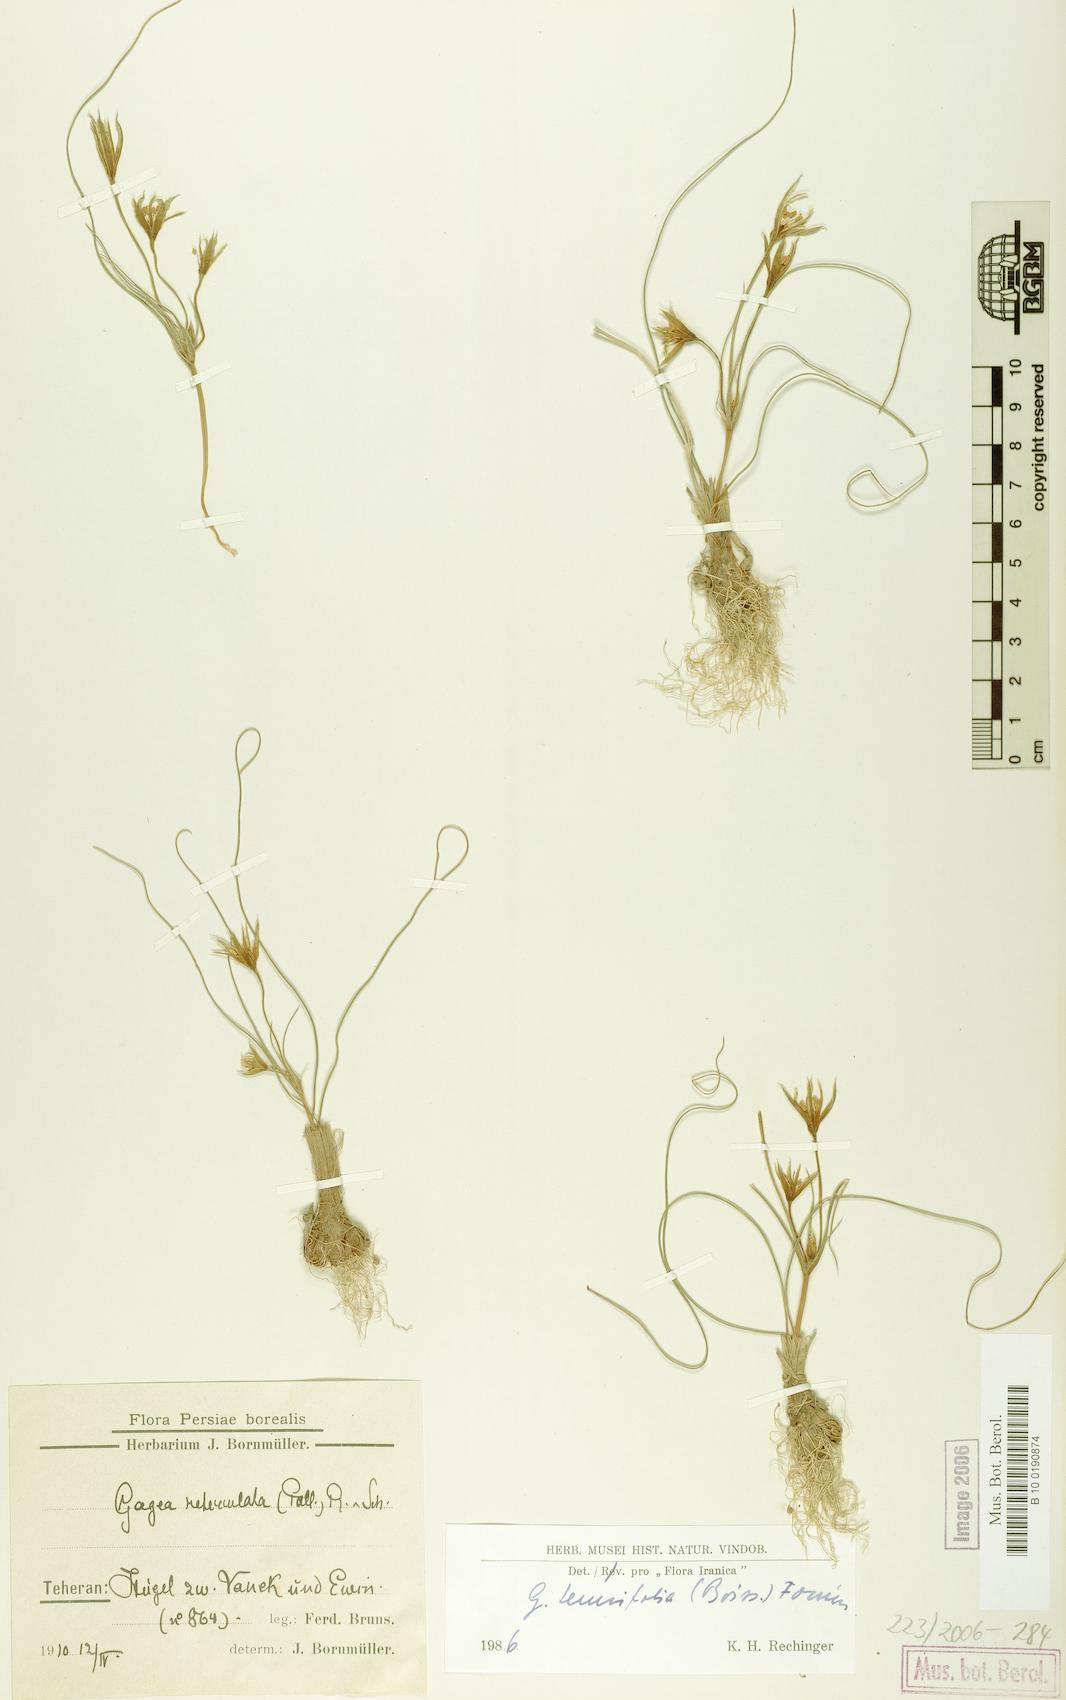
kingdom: Plantae
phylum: Tracheophyta
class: Liliopsida
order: Liliales
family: Liliaceae
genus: Gagea
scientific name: Gagea reticulata
